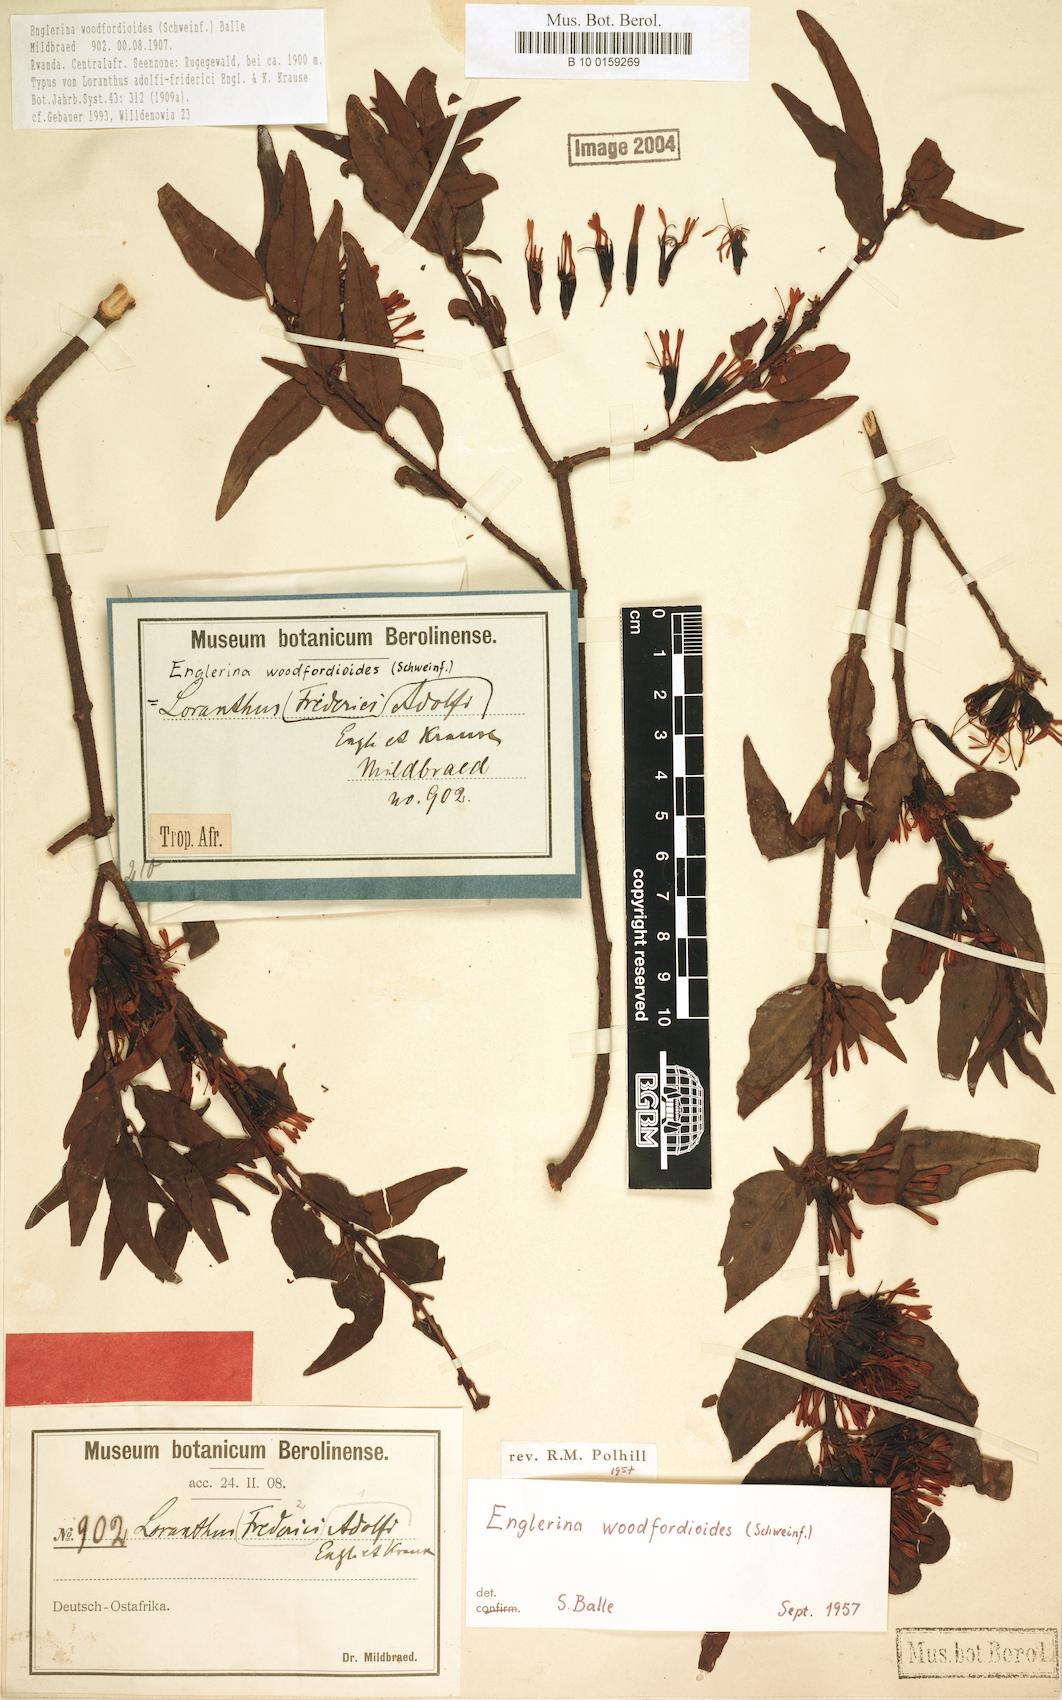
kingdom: Plantae
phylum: Tracheophyta
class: Magnoliopsida
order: Santalales
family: Loranthaceae
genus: Englerina
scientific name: Englerina woodfordioides
